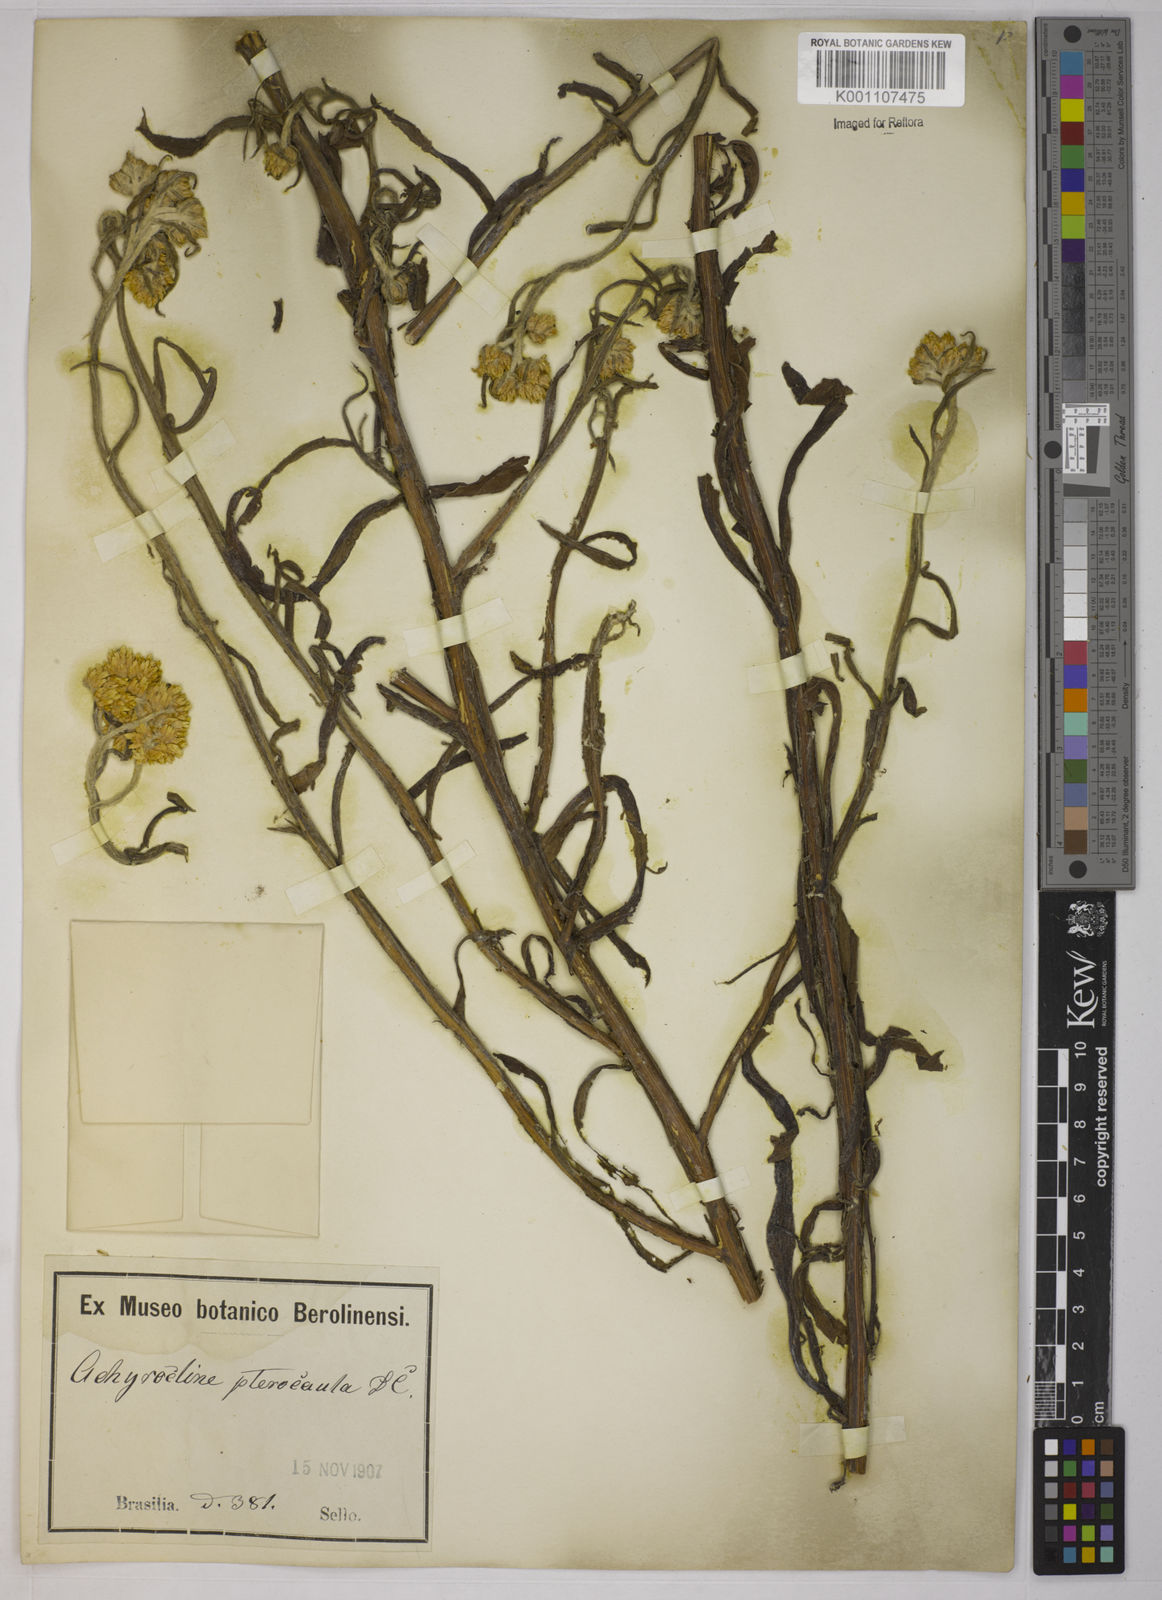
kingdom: Plantae
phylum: Tracheophyta
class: Magnoliopsida
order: Asterales
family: Asteraceae
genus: Achyrocline
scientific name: Achyrocline alata
